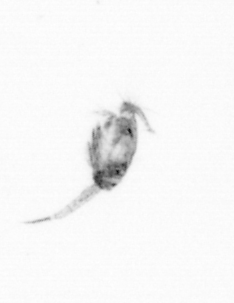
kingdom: Animalia
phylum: Arthropoda
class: Copepoda
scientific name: Copepoda
